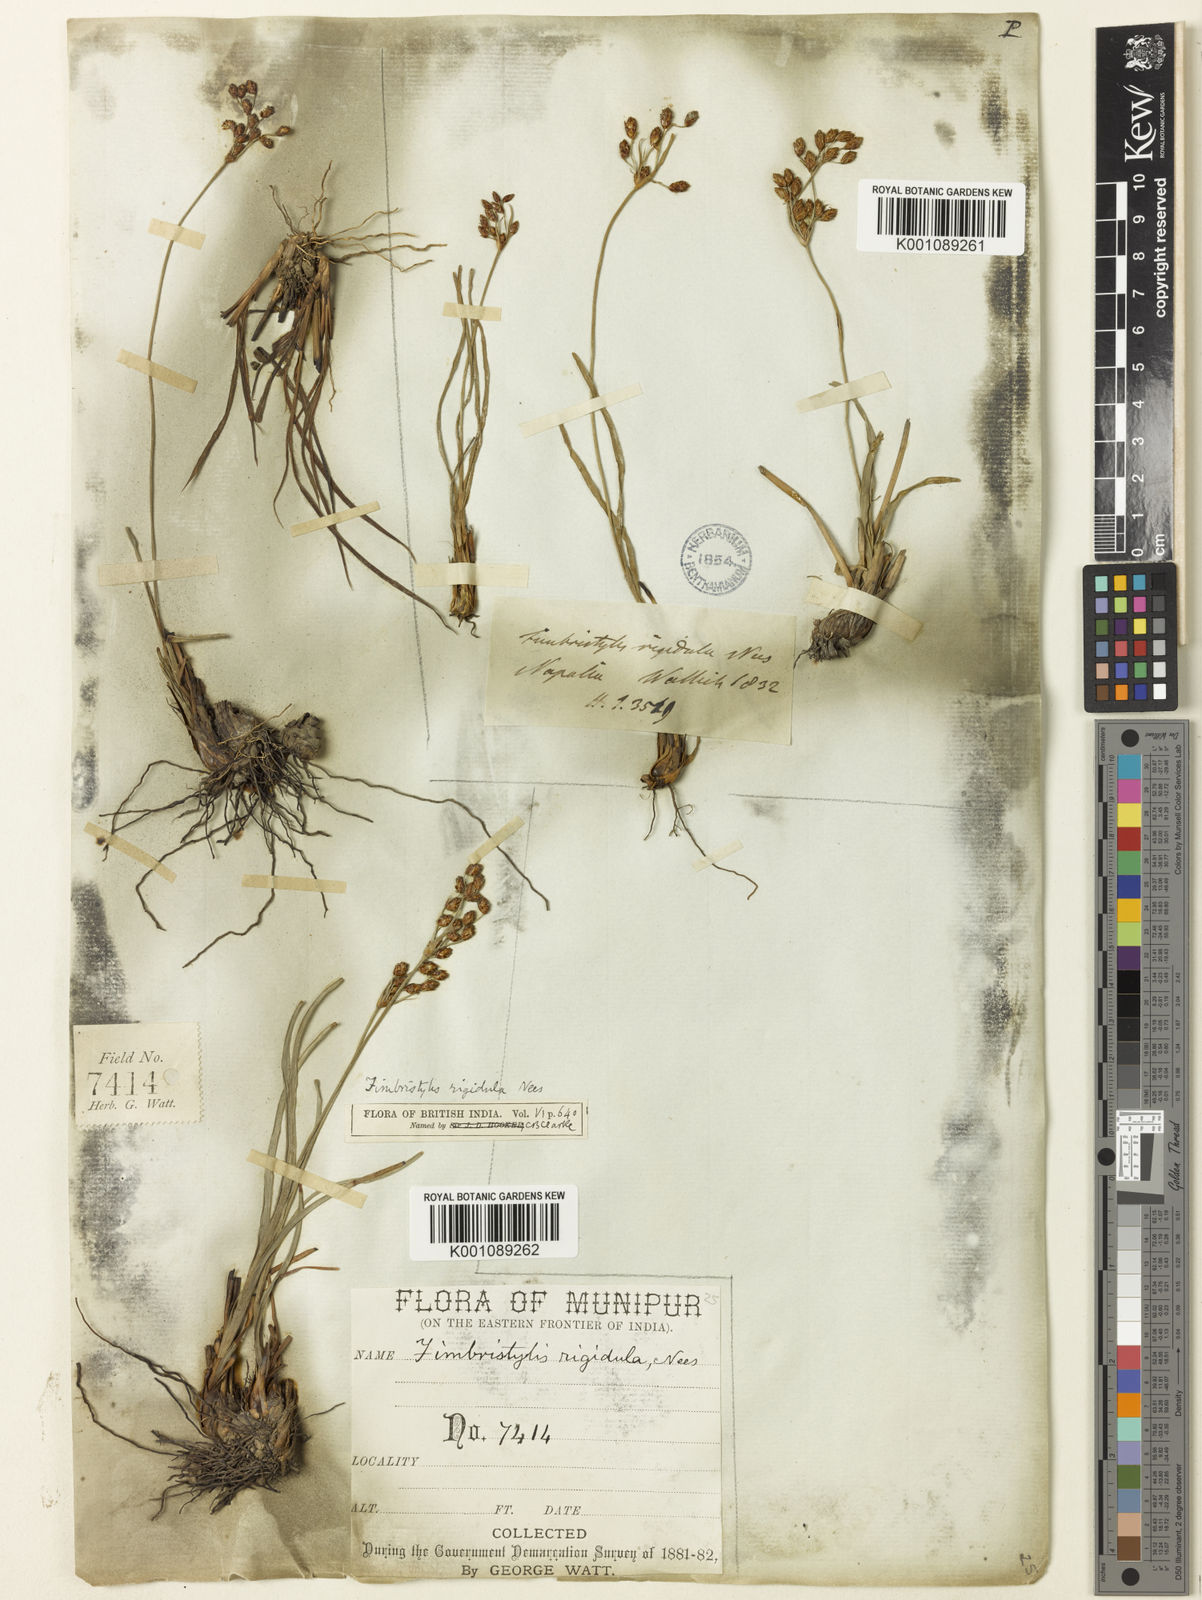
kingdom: Plantae
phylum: Tracheophyta
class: Liliopsida
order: Poales
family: Cyperaceae
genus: Fimbristylis
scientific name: Fimbristylis rigidula
